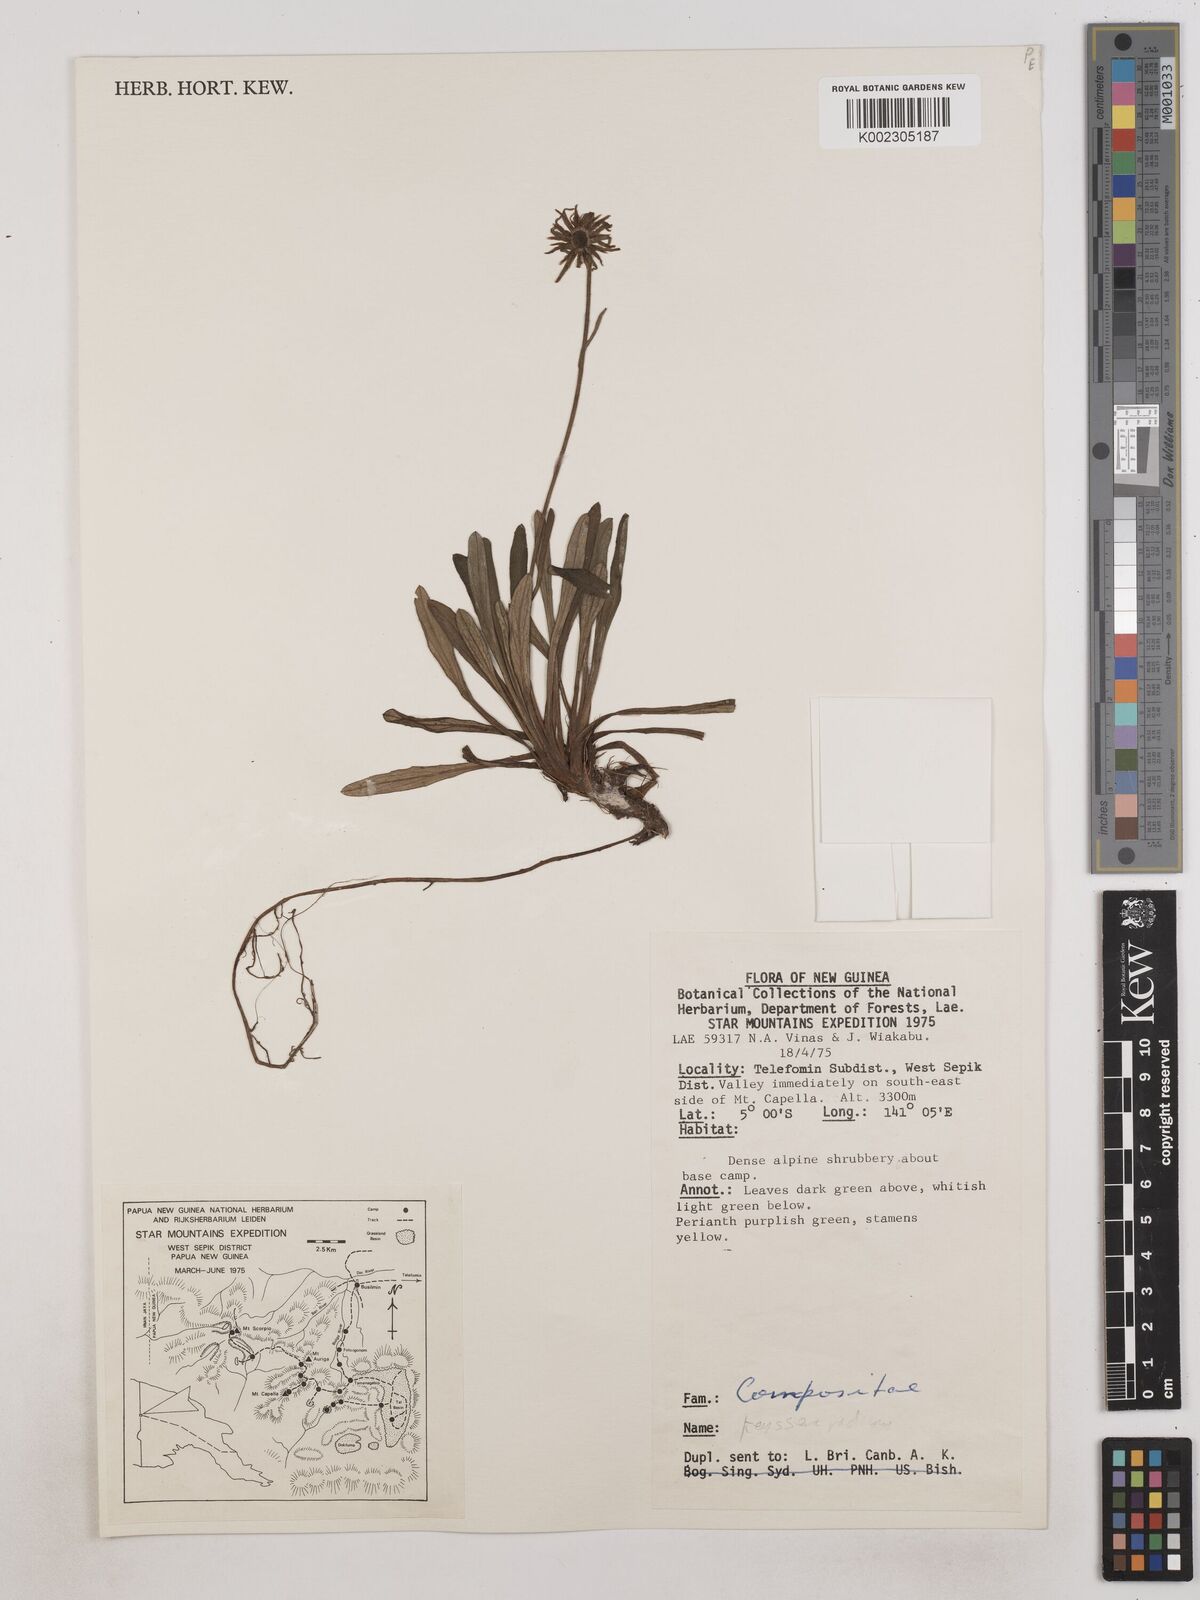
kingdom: Plantae
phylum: Tracheophyta
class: Magnoliopsida
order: Asterales
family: Asteraceae
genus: Keysseria
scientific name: Keysseria radicans
